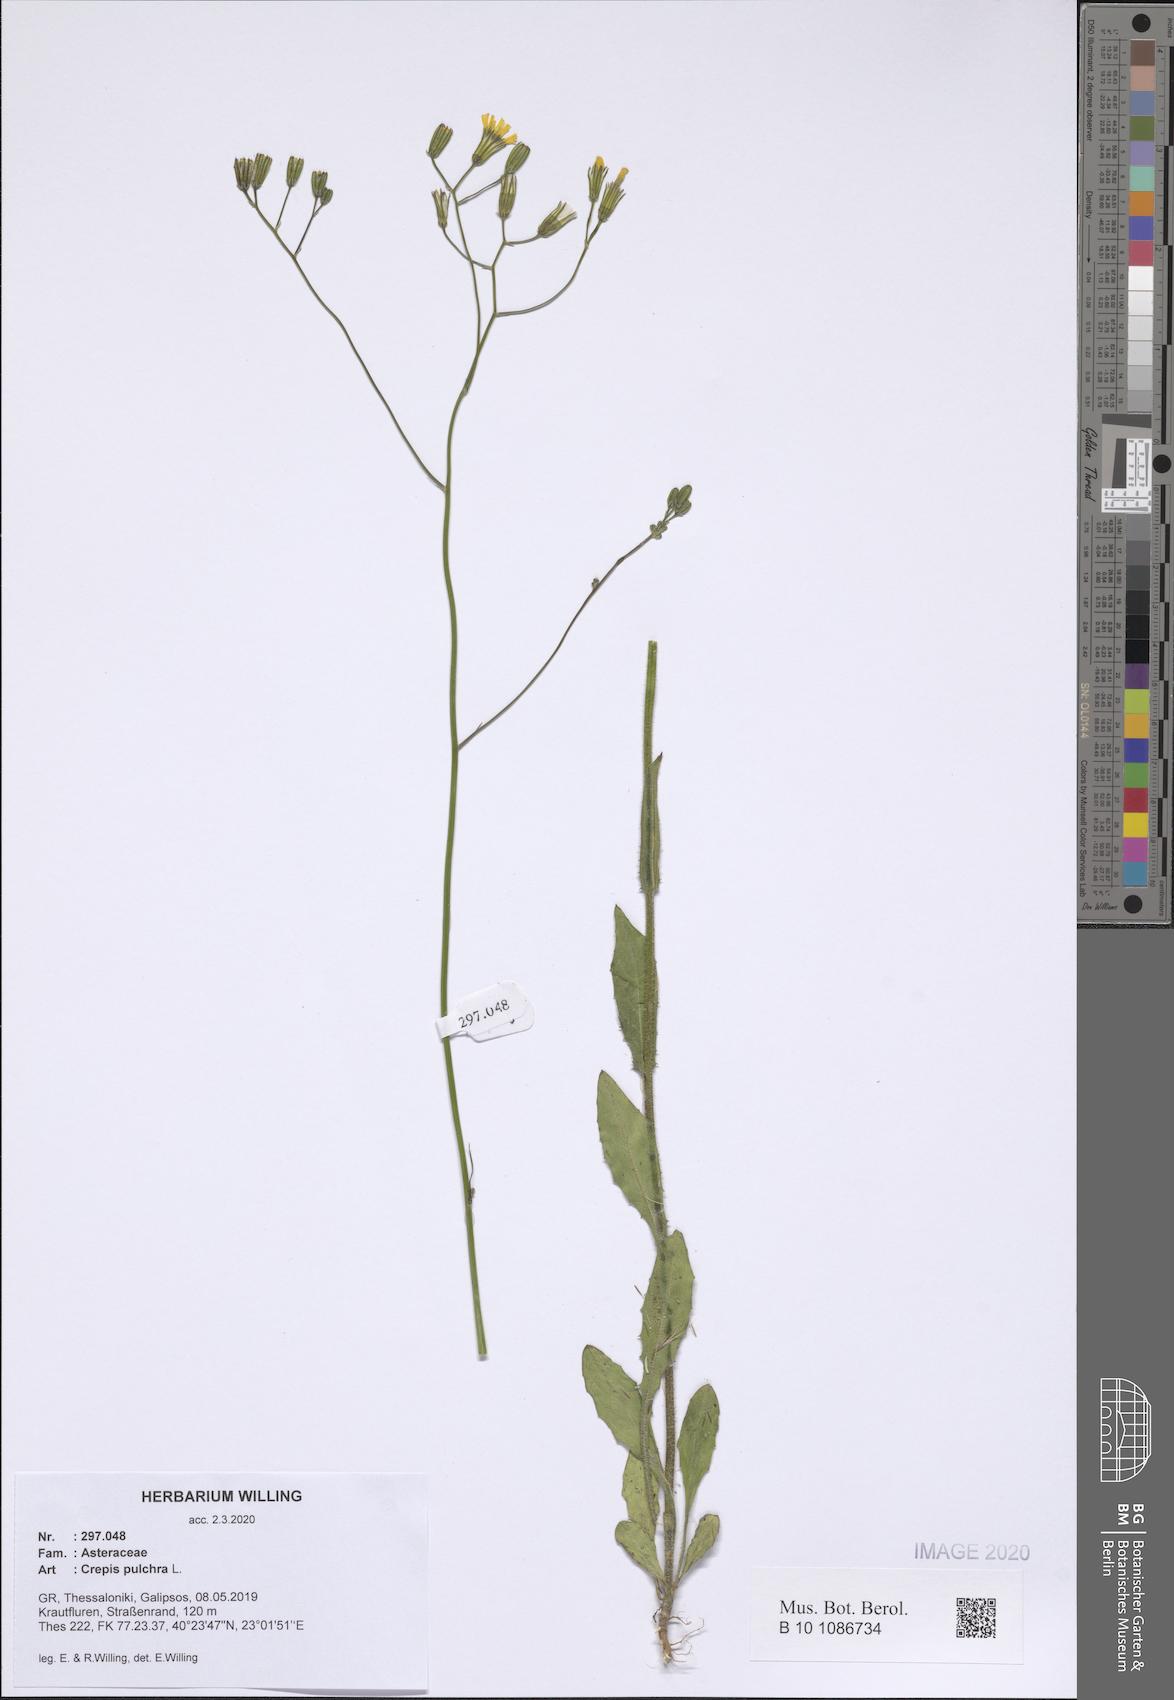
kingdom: Plantae
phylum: Tracheophyta
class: Magnoliopsida
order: Asterales
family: Asteraceae
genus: Crepis
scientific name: Crepis pulchra
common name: Hawk's-beard
